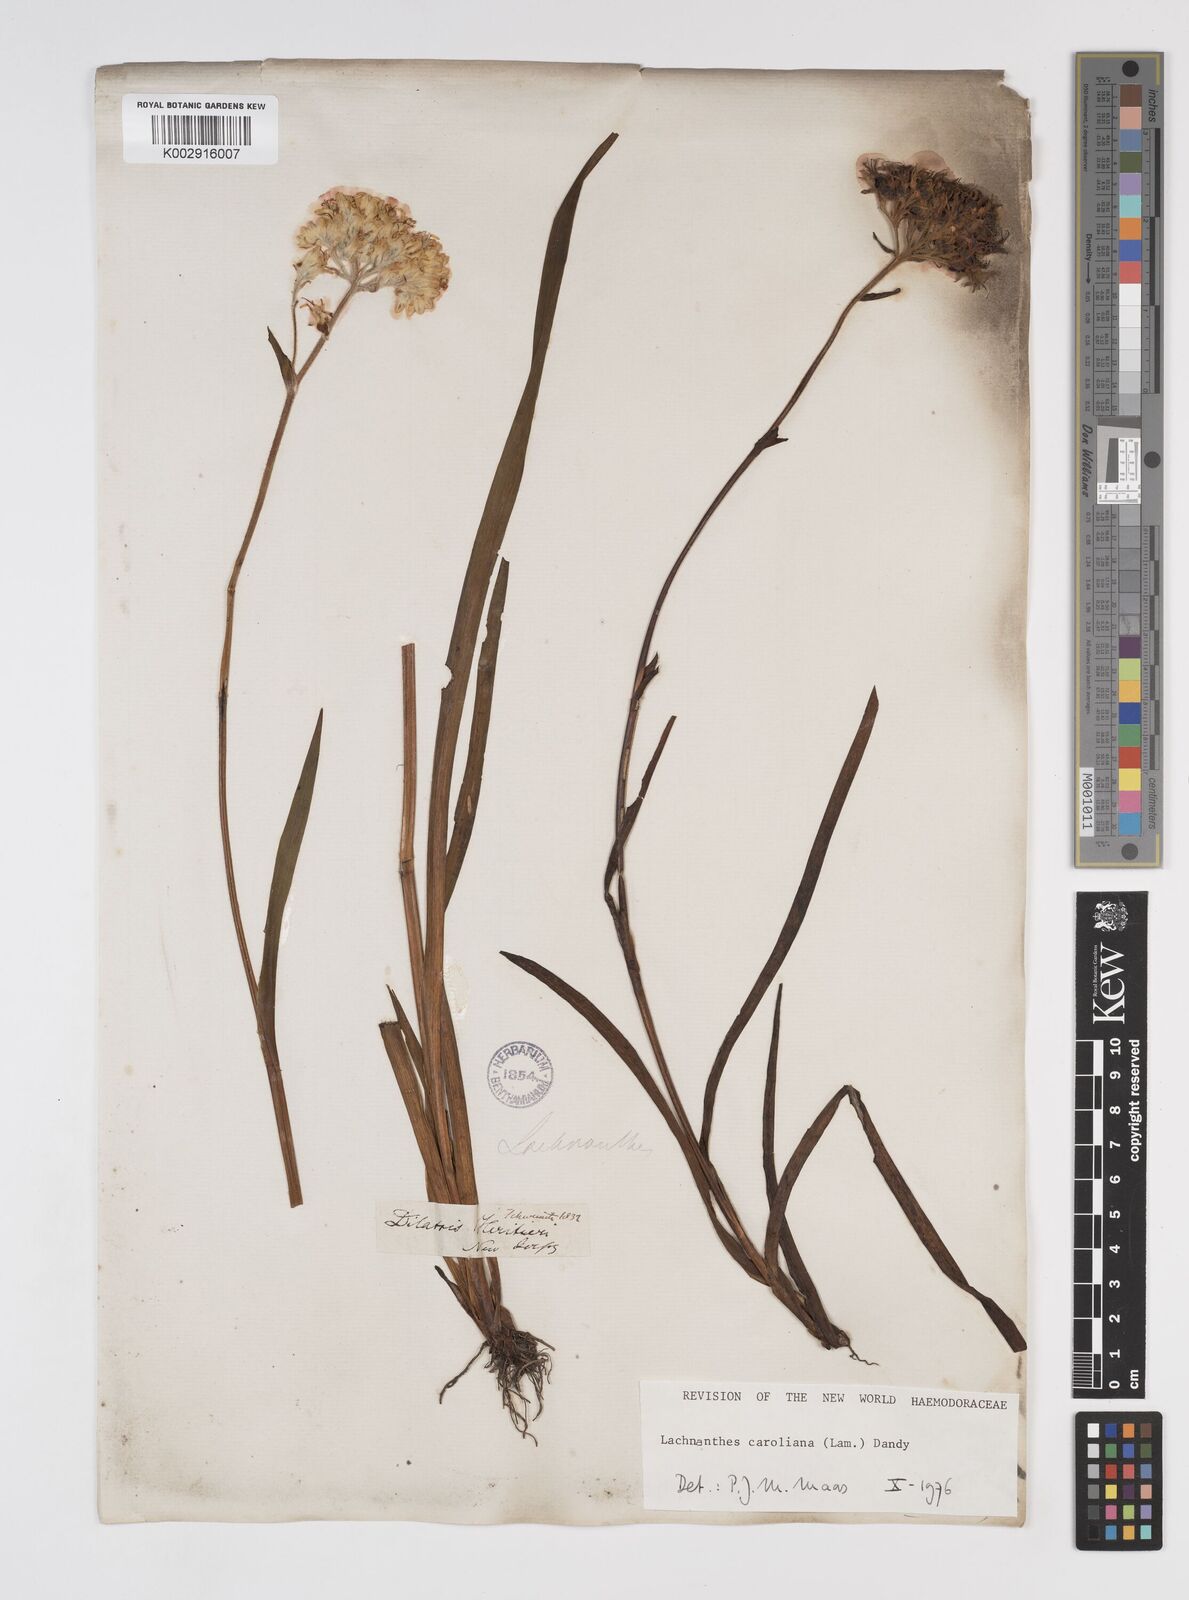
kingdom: Plantae
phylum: Tracheophyta
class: Liliopsida
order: Commelinales
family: Haemodoraceae
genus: Lachnanthes
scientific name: Lachnanthes caroliniana
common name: Carolina redroot
